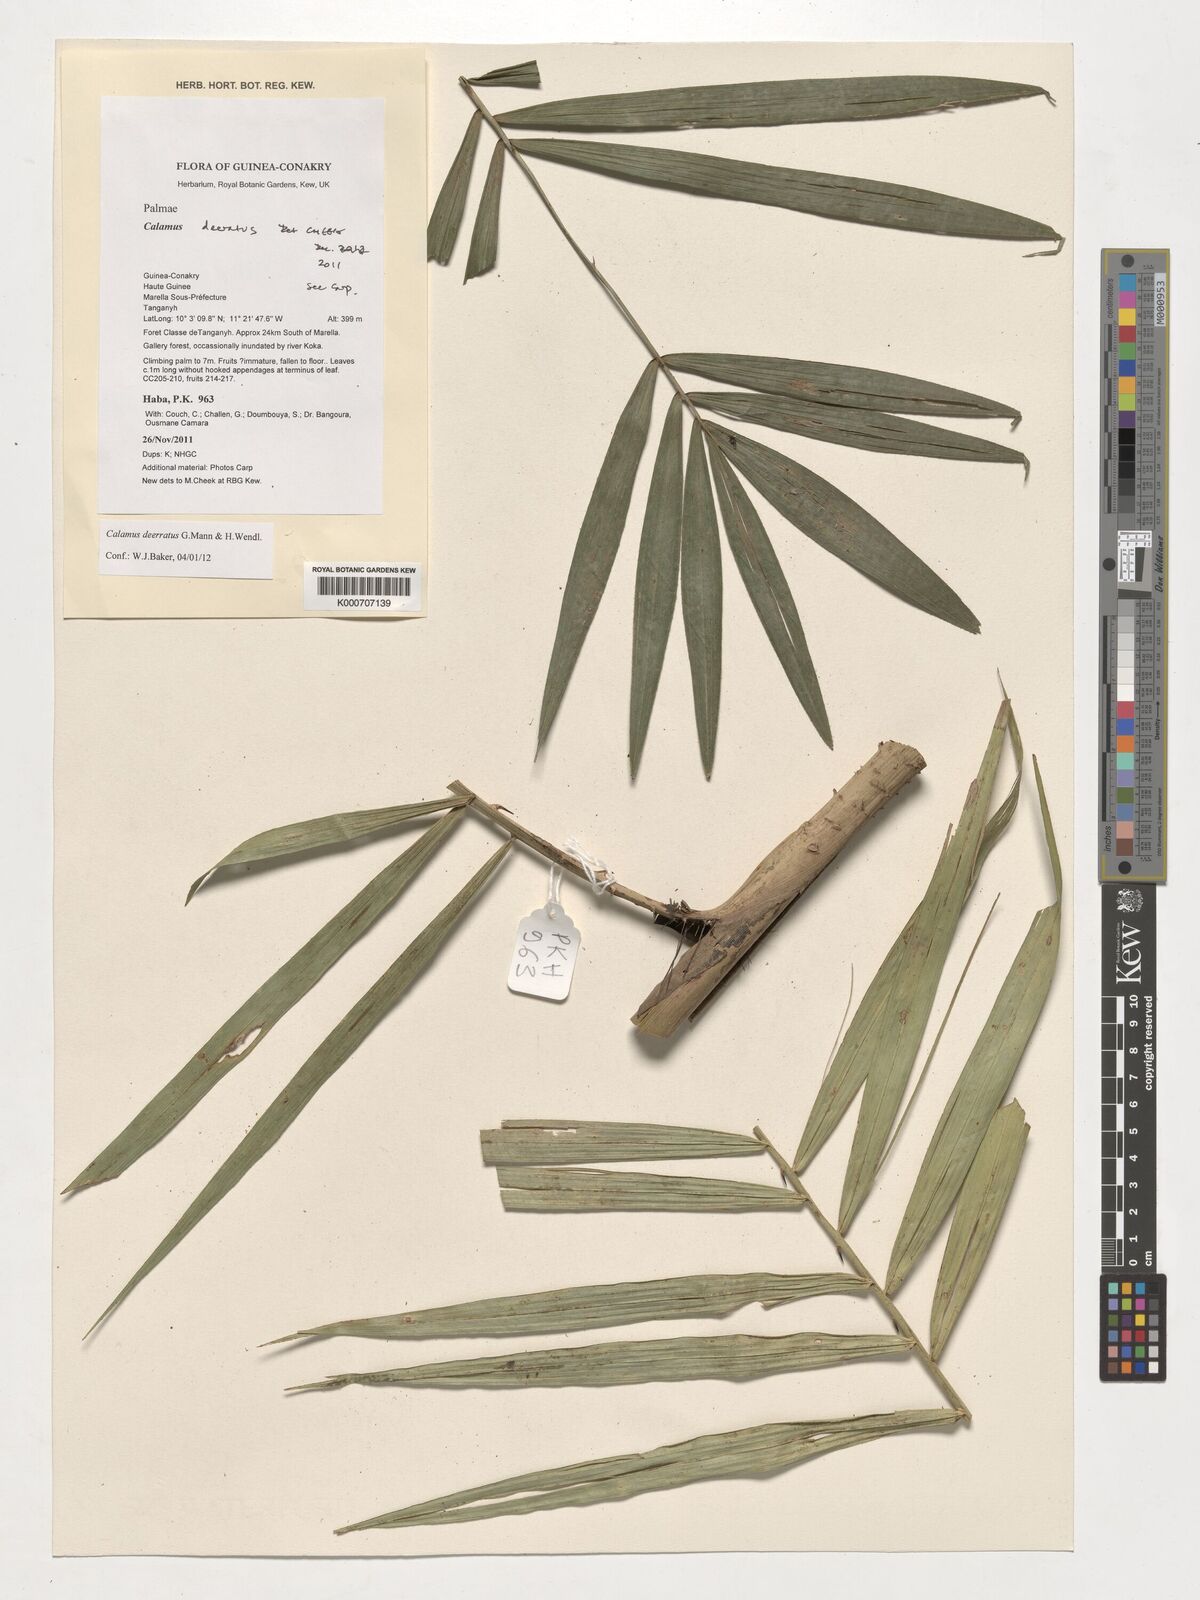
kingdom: Plantae
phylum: Tracheophyta
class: Liliopsida
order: Arecales
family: Arecaceae
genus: Calamus
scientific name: Calamus deerratus
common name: Rattan
